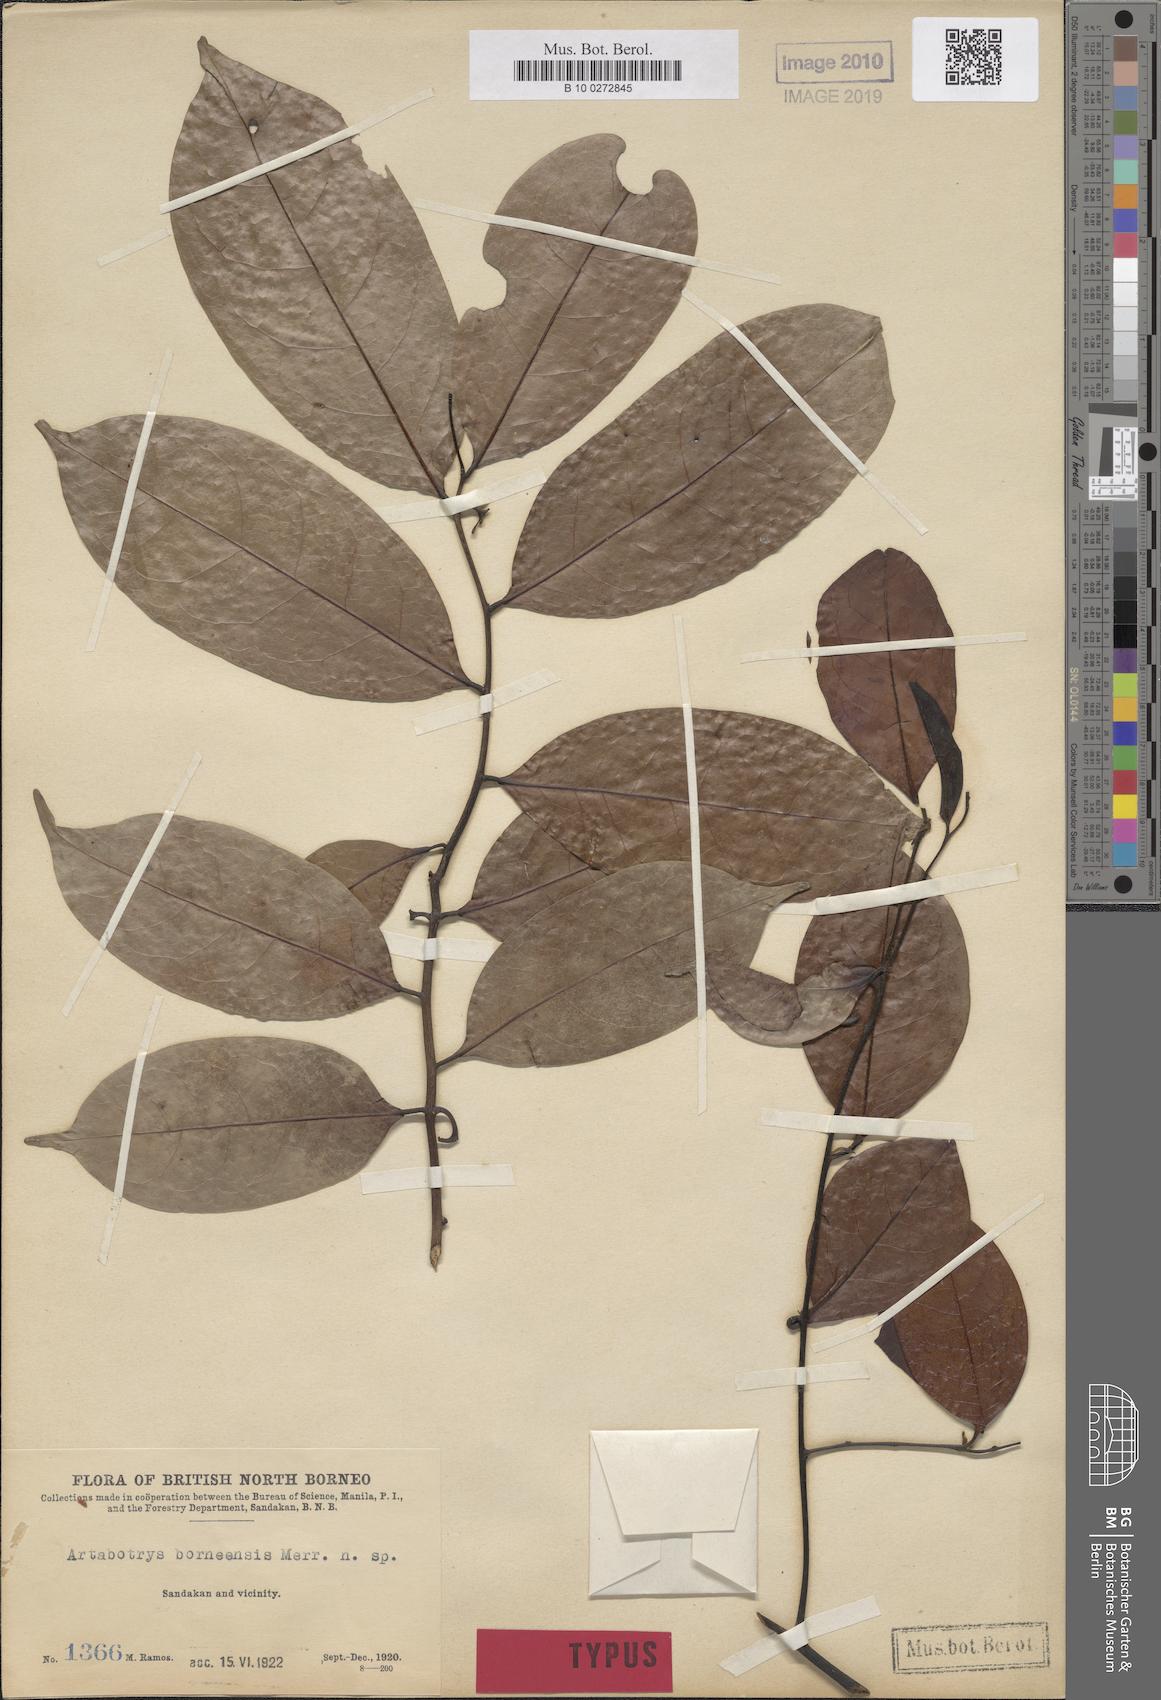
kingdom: Plantae
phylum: Tracheophyta
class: Magnoliopsida
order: Magnoliales
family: Annonaceae
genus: Artabotrys
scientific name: Artabotrys polygynus
